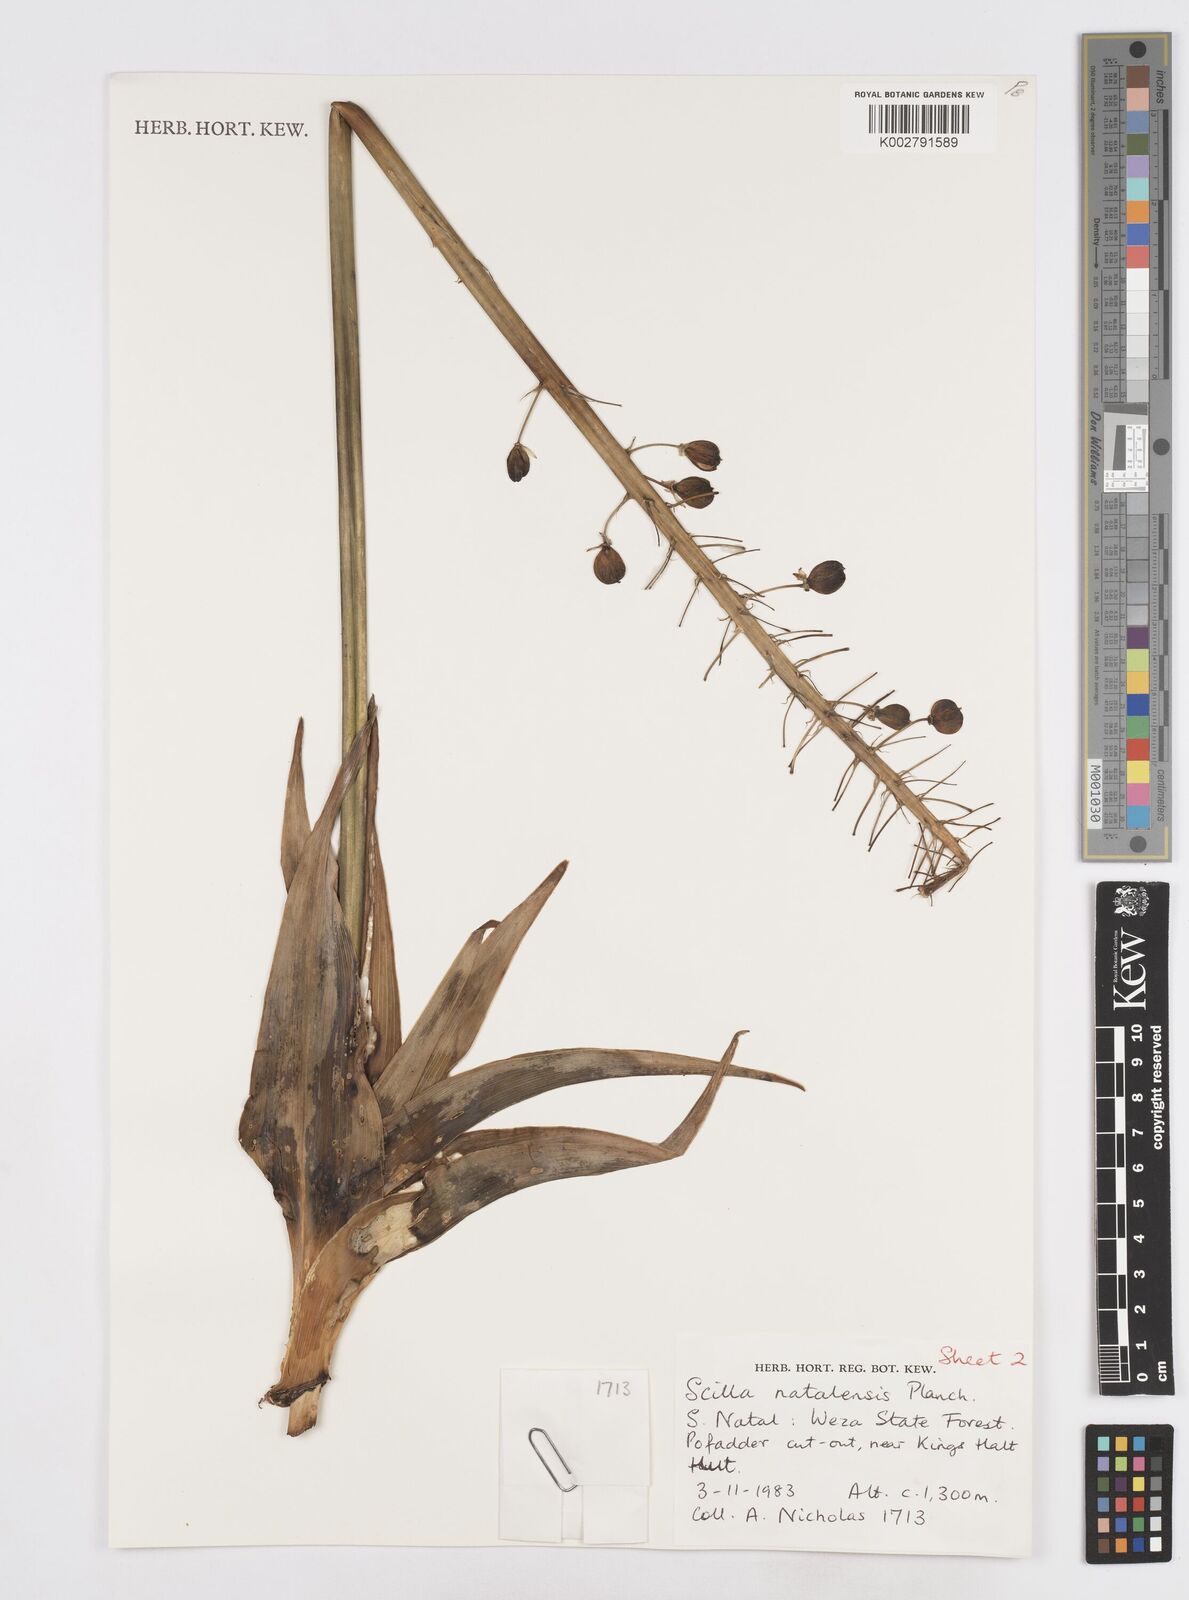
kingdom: Plantae
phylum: Tracheophyta
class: Liliopsida
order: Asparagales
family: Asparagaceae
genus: Merwilla
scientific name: Merwilla plumbea
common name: Blue-squill
